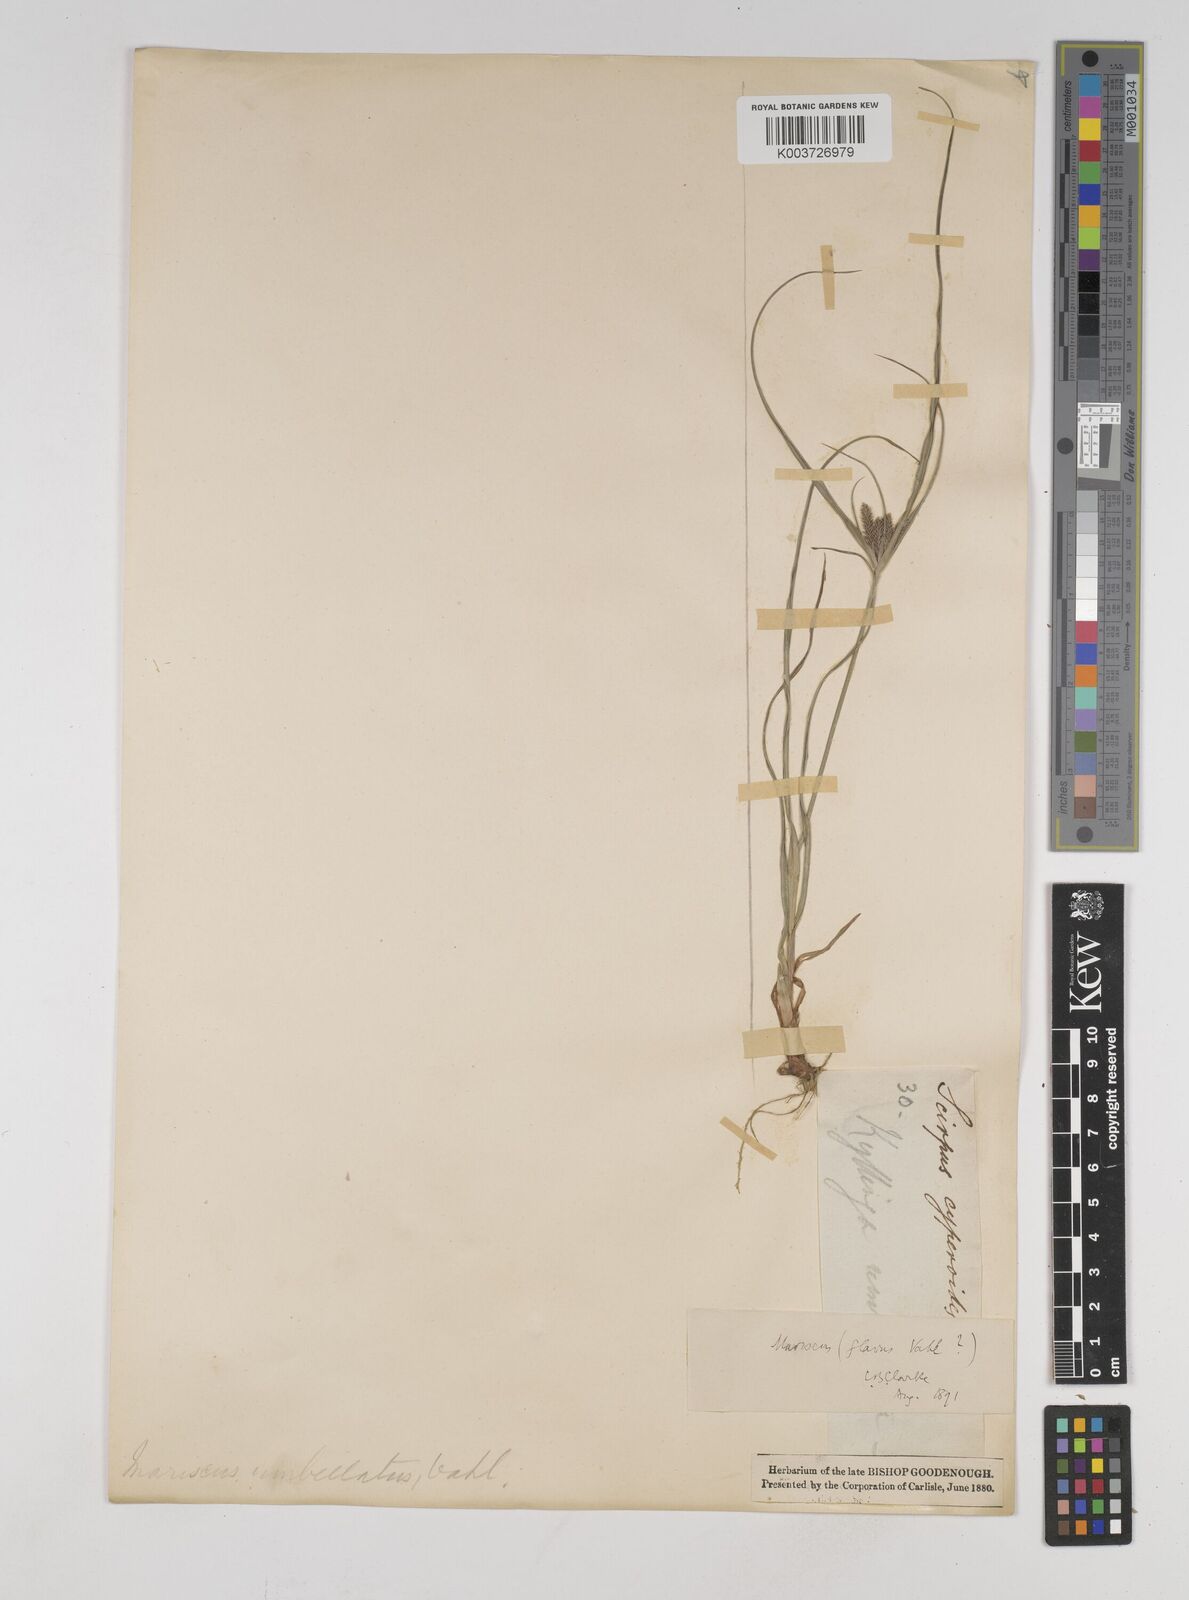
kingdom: Plantae
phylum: Tracheophyta
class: Liliopsida
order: Poales
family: Cyperaceae
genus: Cyperus
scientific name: Cyperus aggregatus
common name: Inflatedscale flatsedge
